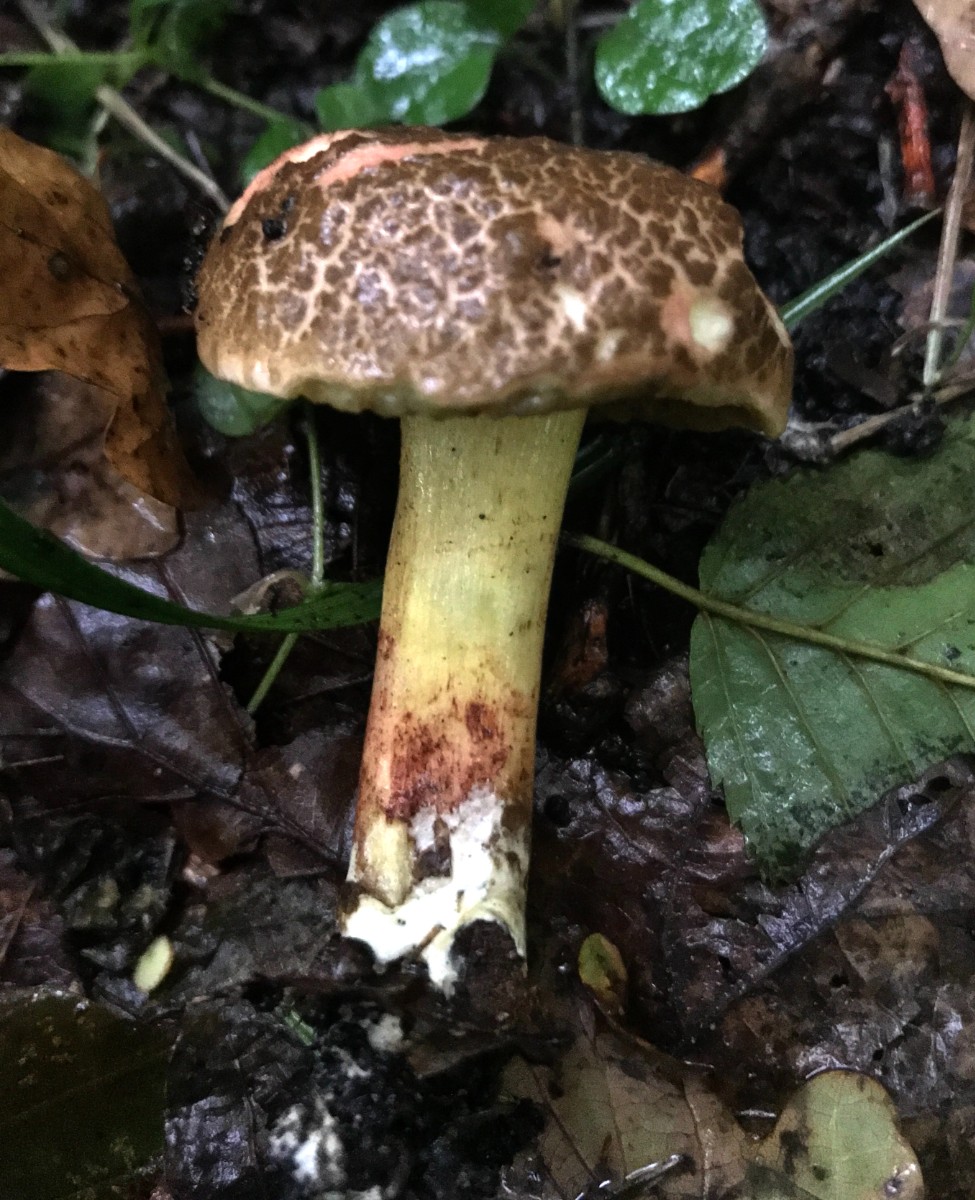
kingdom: Fungi
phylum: Basidiomycota
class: Agaricomycetes
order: Boletales
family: Boletaceae
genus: Xerocomellus
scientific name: Xerocomellus chrysenteron
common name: rødsprukken rørhat
